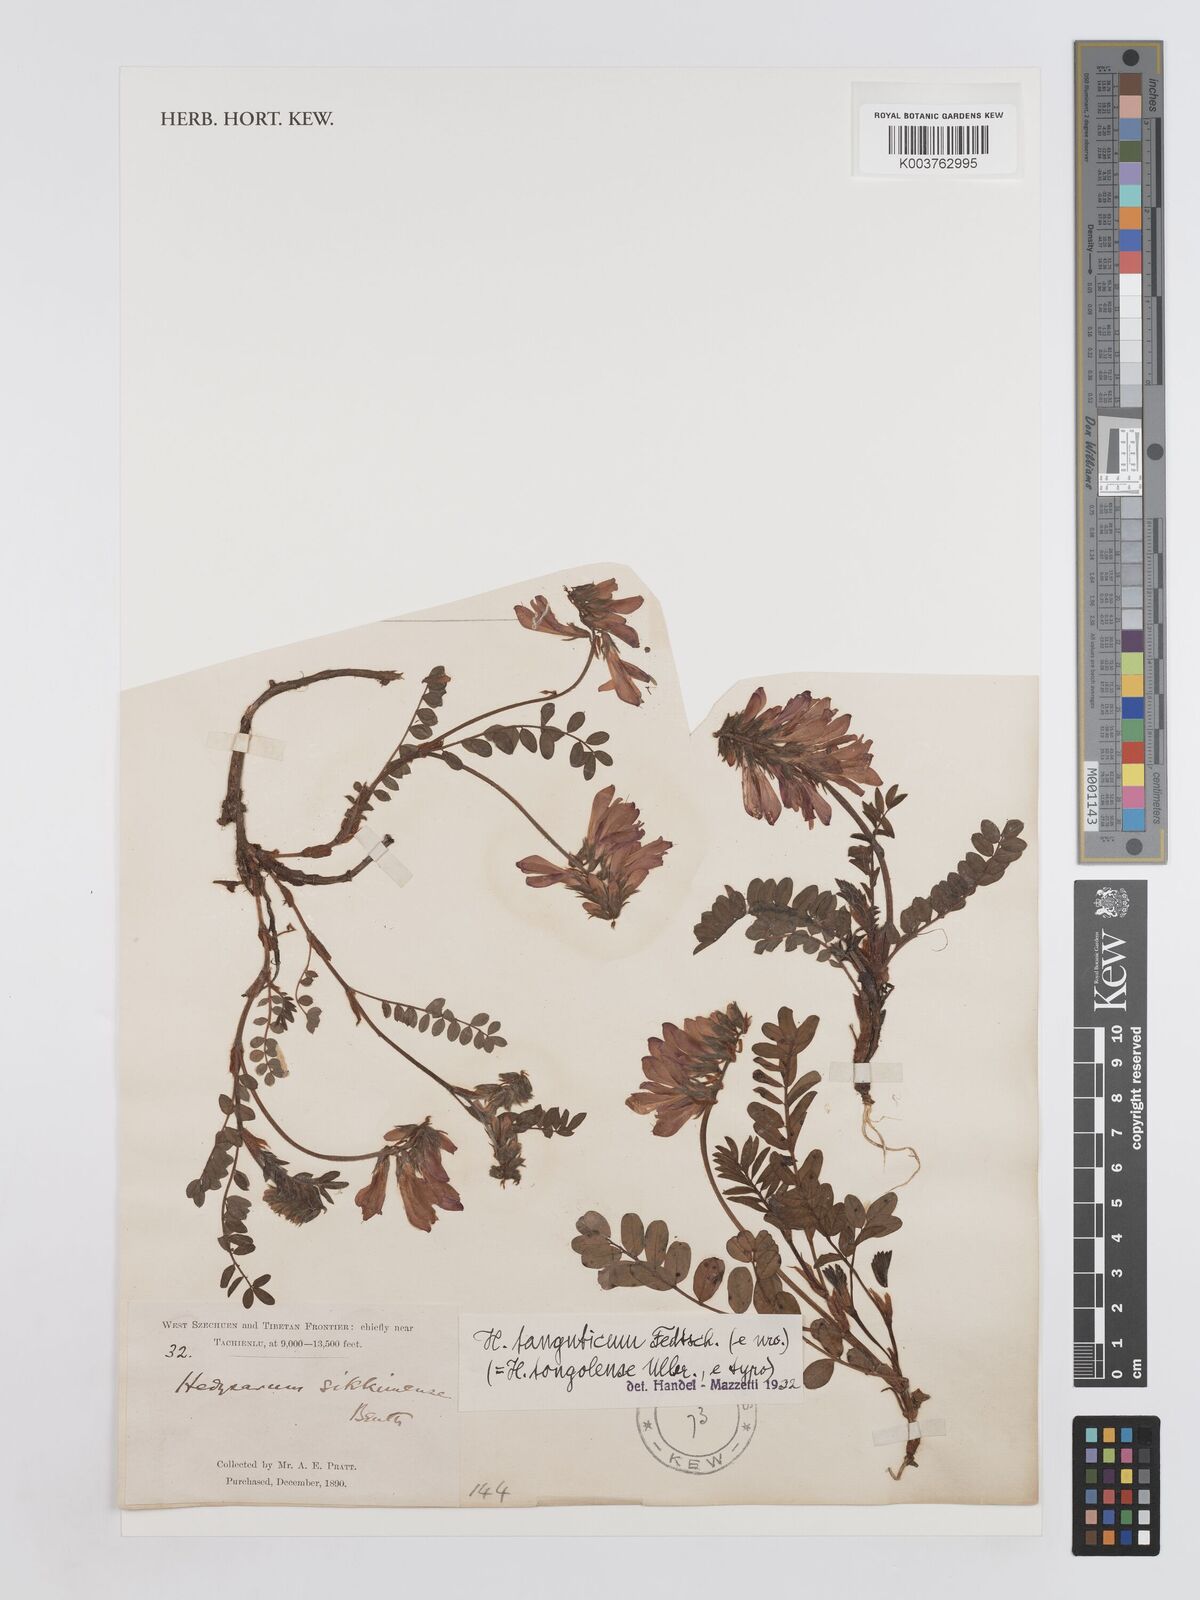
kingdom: Plantae
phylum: Tracheophyta
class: Magnoliopsida
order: Fabales
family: Fabaceae
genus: Hedysarum
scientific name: Hedysarum tanguticum
